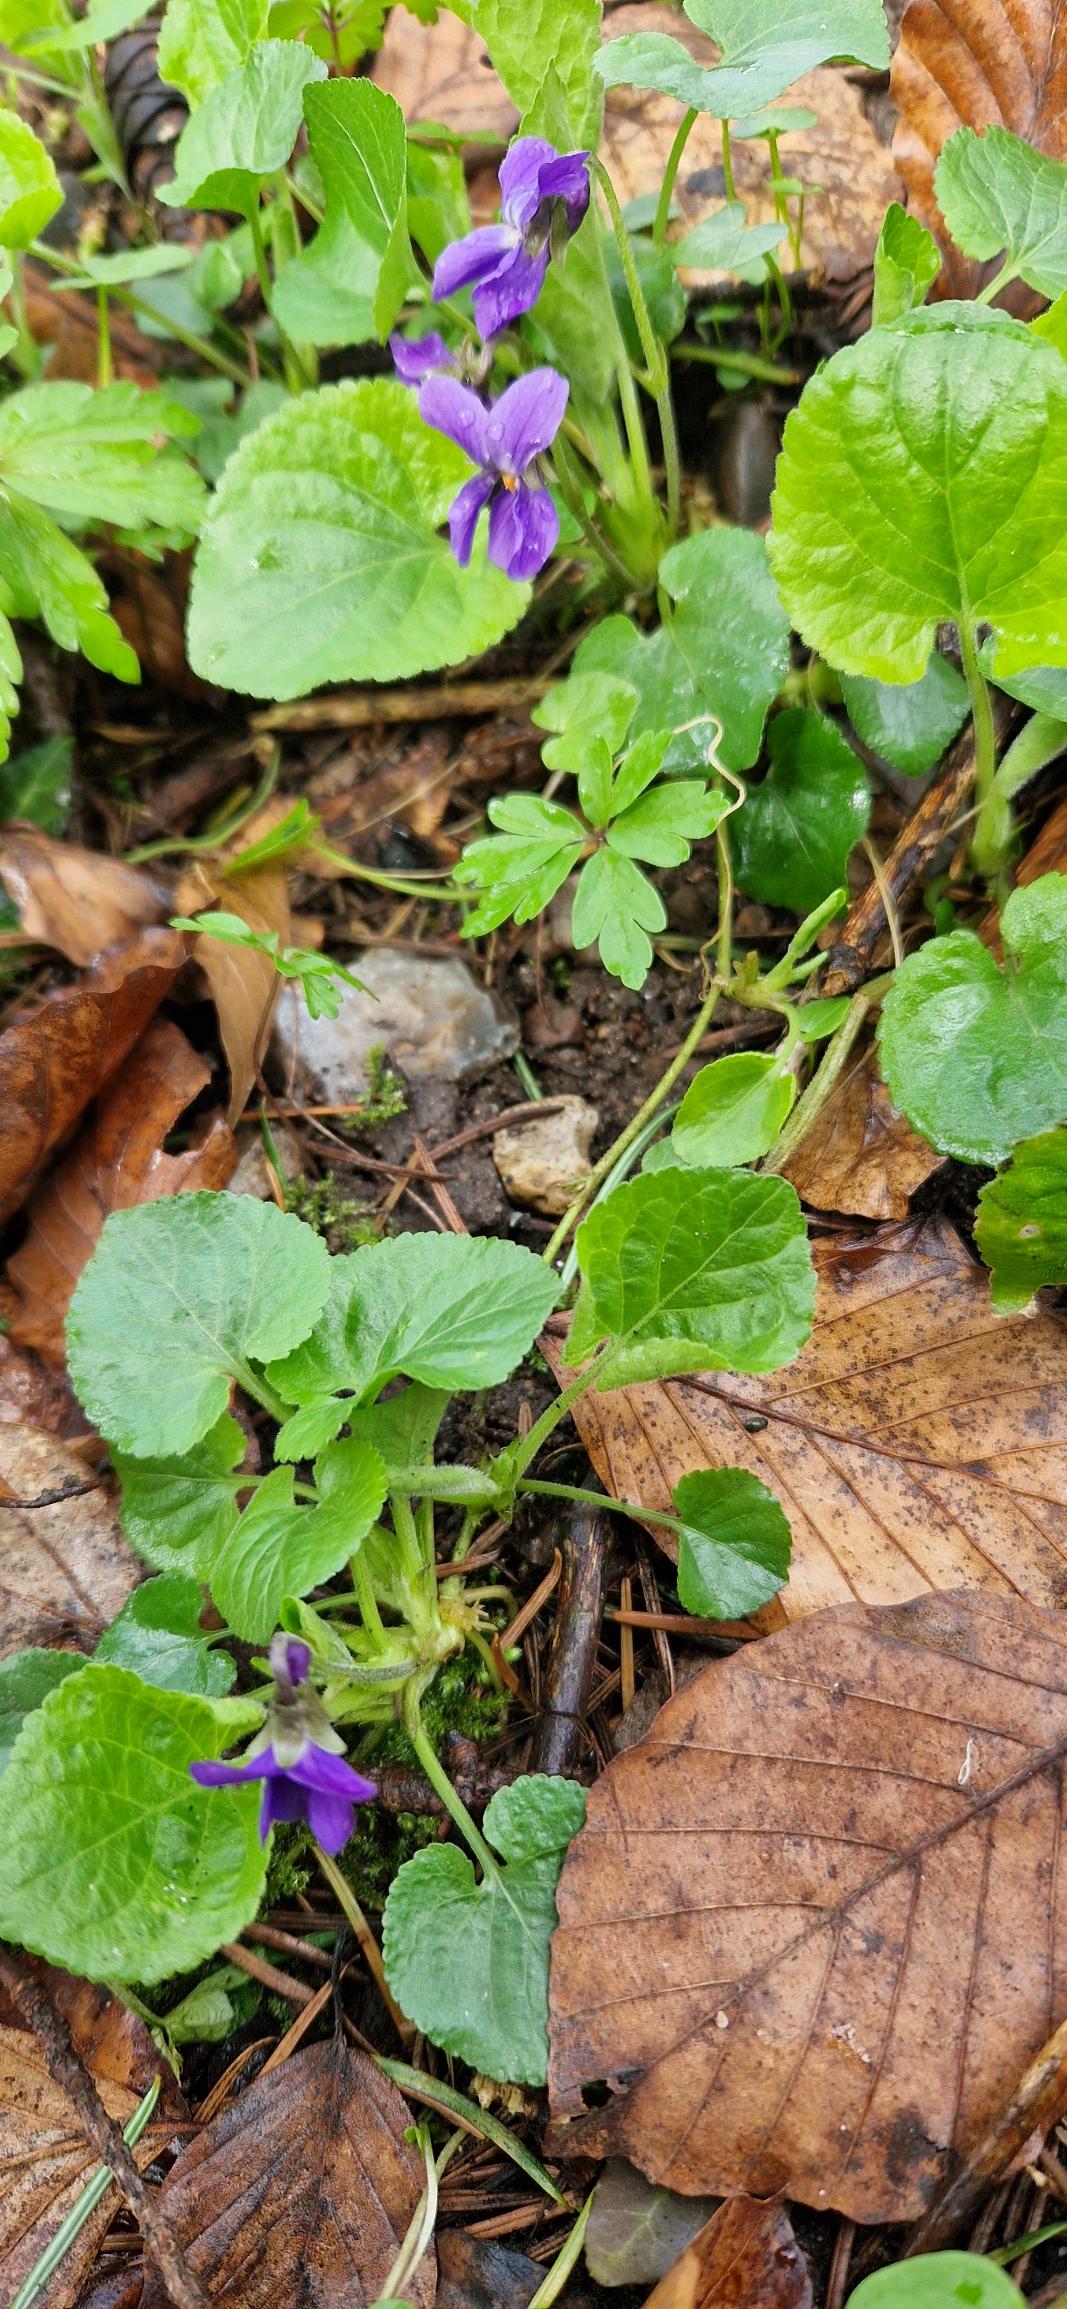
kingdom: Plantae
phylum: Tracheophyta
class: Magnoliopsida
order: Malpighiales
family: Violaceae
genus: Viola
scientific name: Viola odorata
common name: Marts-viol
